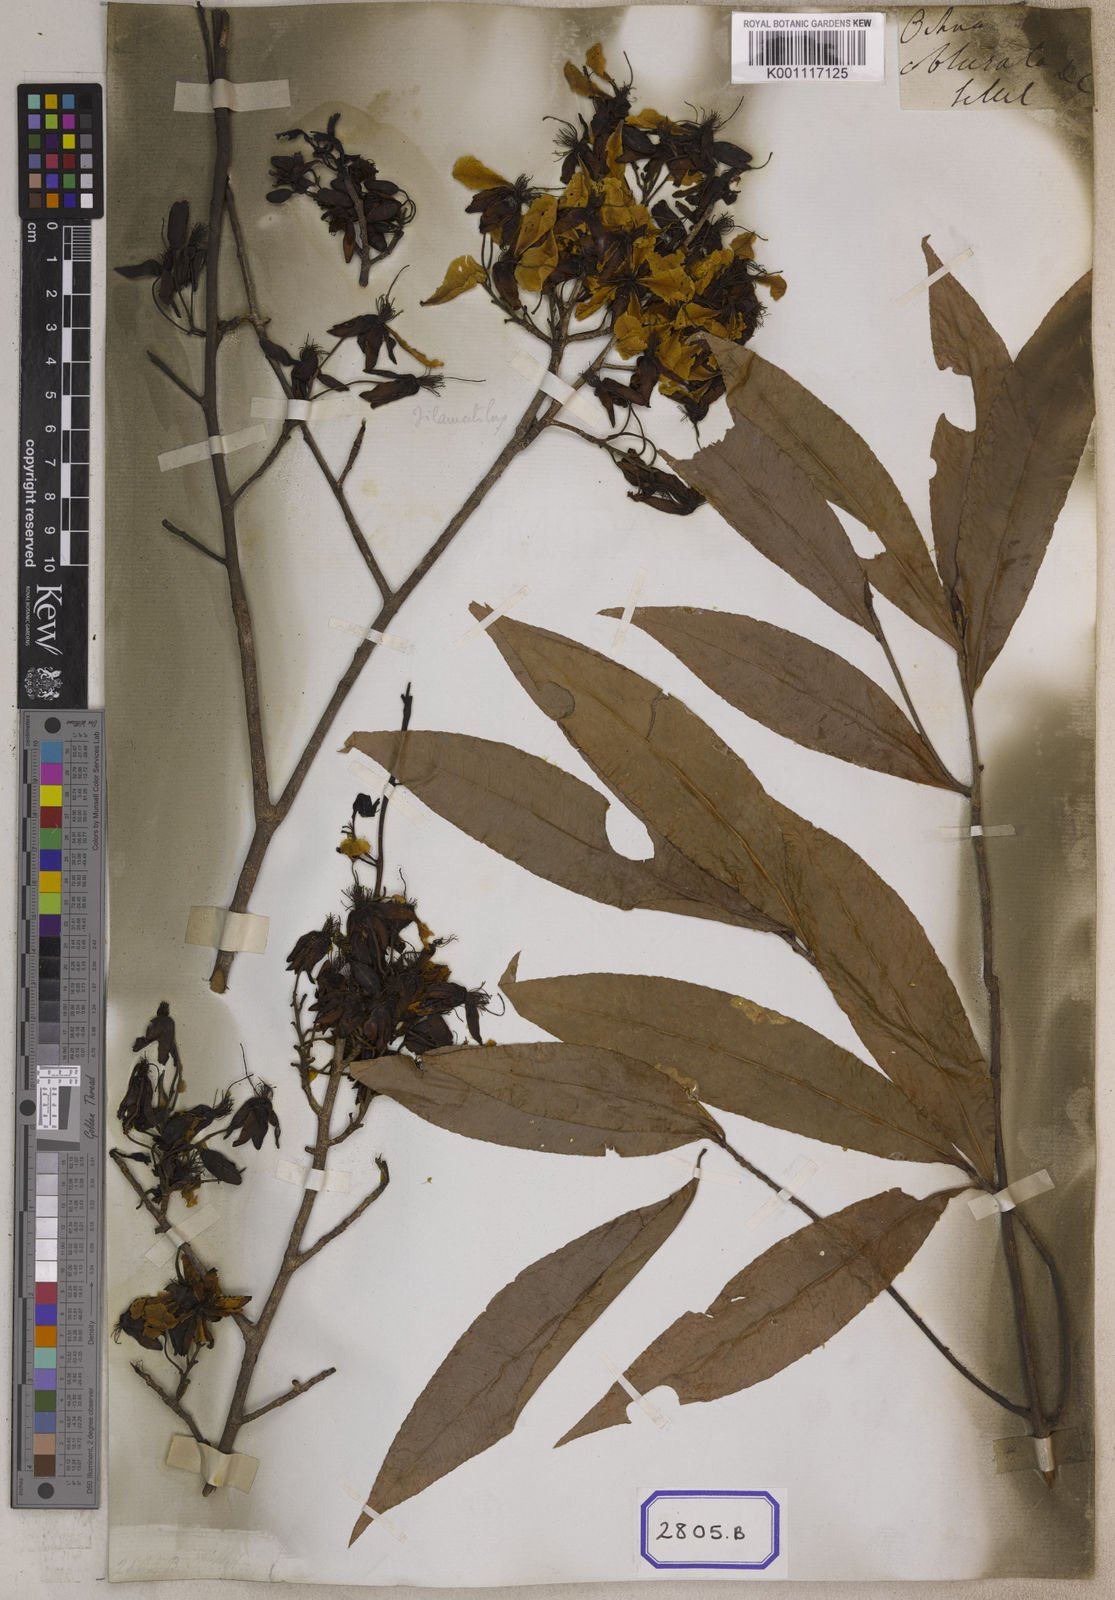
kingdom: Plantae
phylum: Tracheophyta
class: Magnoliopsida
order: Malpighiales
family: Ochnaceae
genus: Ochna
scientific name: Ochna obtusata
